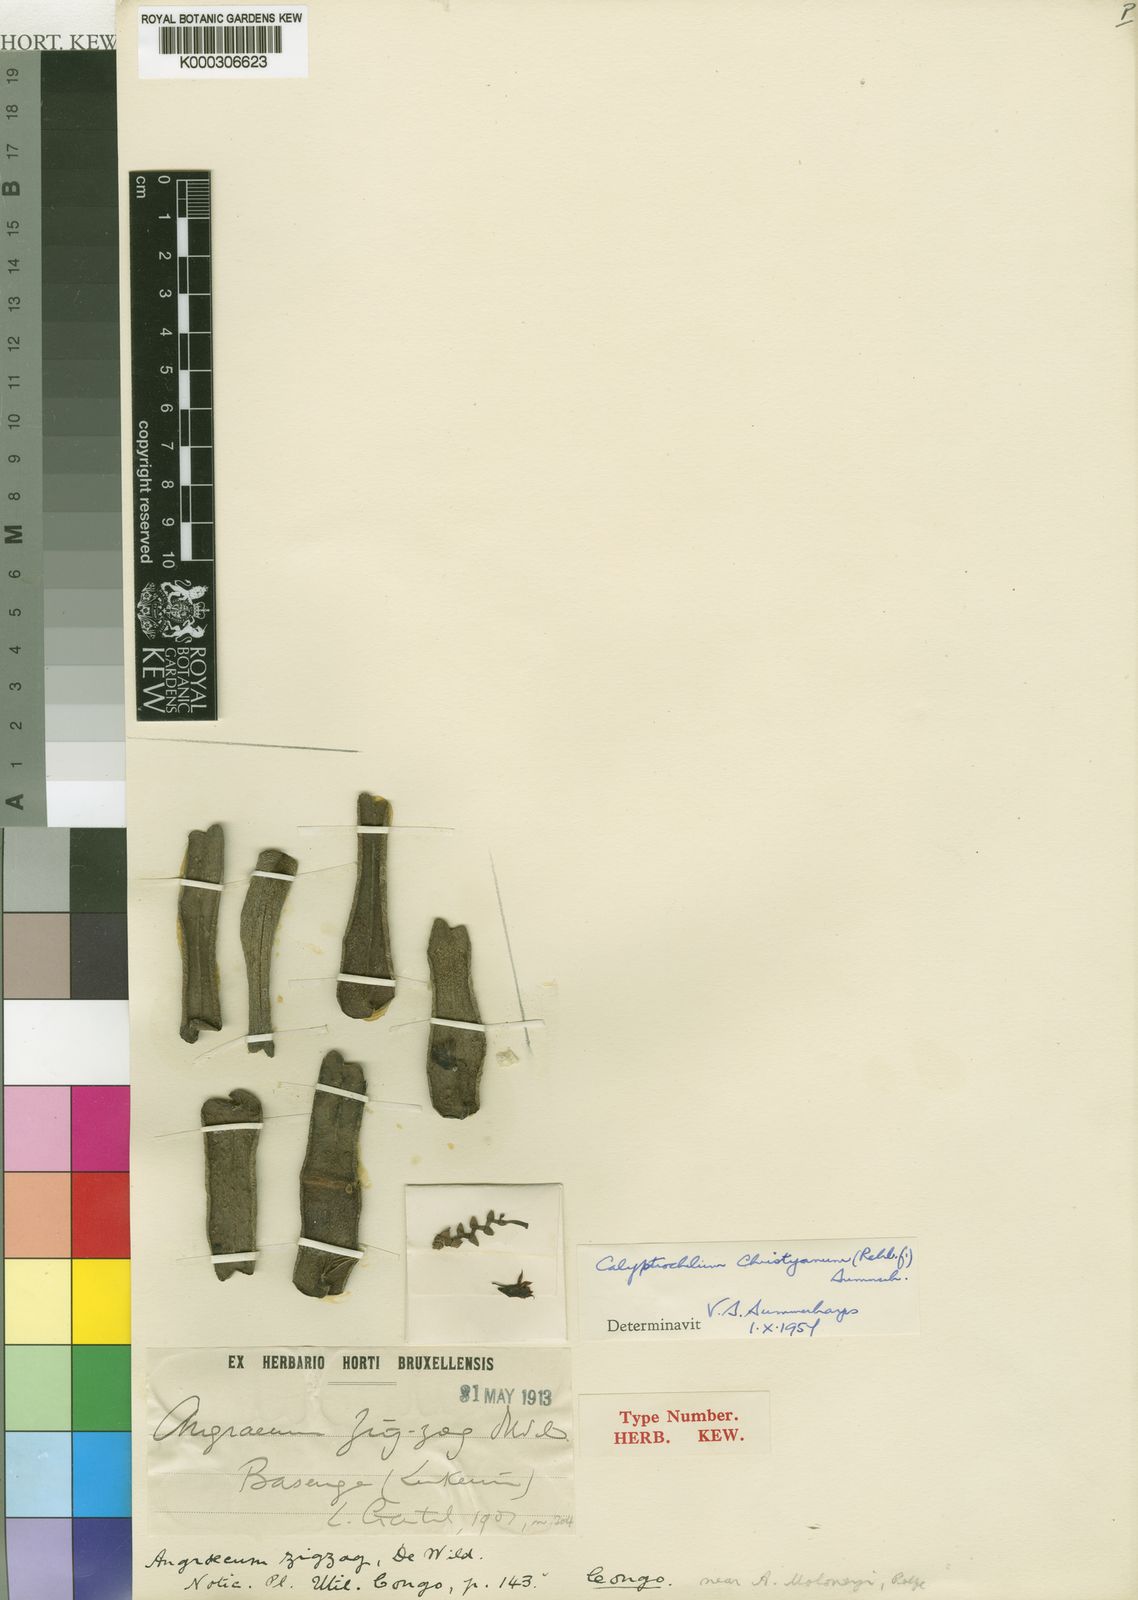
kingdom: Plantae
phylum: Tracheophyta
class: Liliopsida
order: Asparagales
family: Orchidaceae
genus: Calyptrochilum
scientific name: Calyptrochilum christyanum
